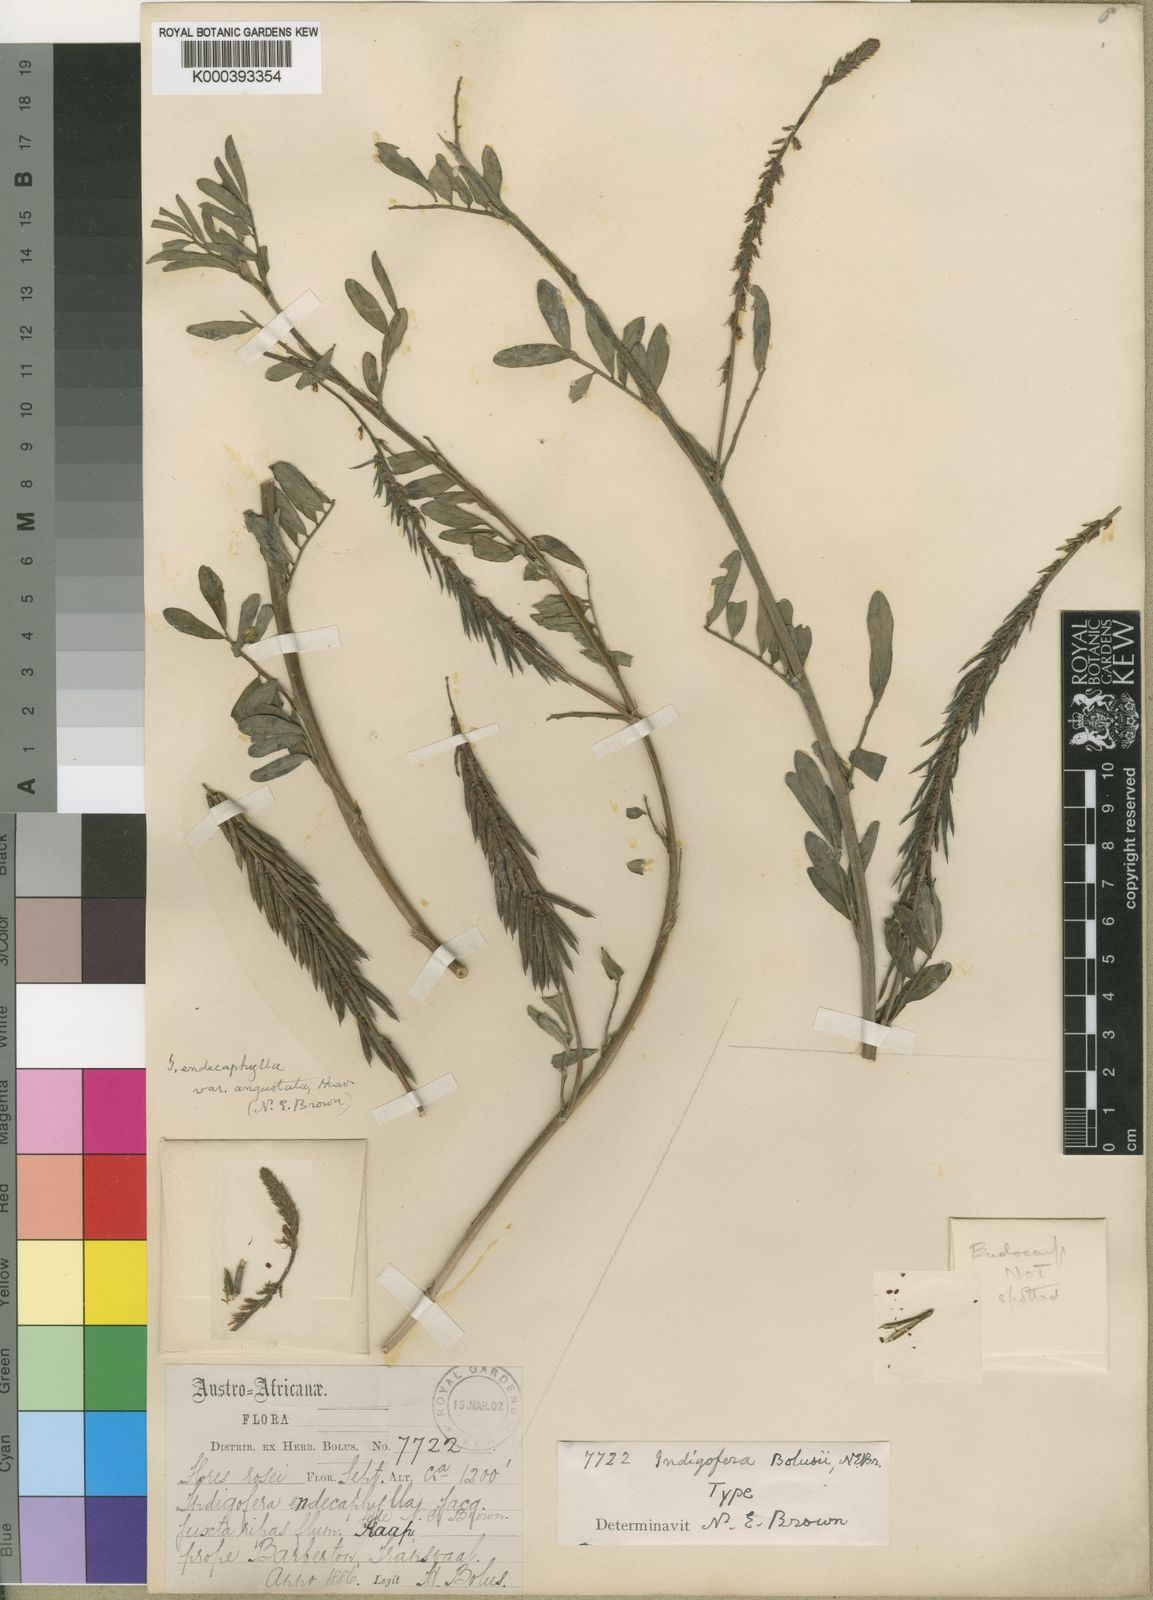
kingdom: Plantae
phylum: Tracheophyta
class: Magnoliopsida
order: Fabales
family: Fabaceae
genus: Indigofera
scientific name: Indigofera hendecaphylla
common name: Trailing indigo
